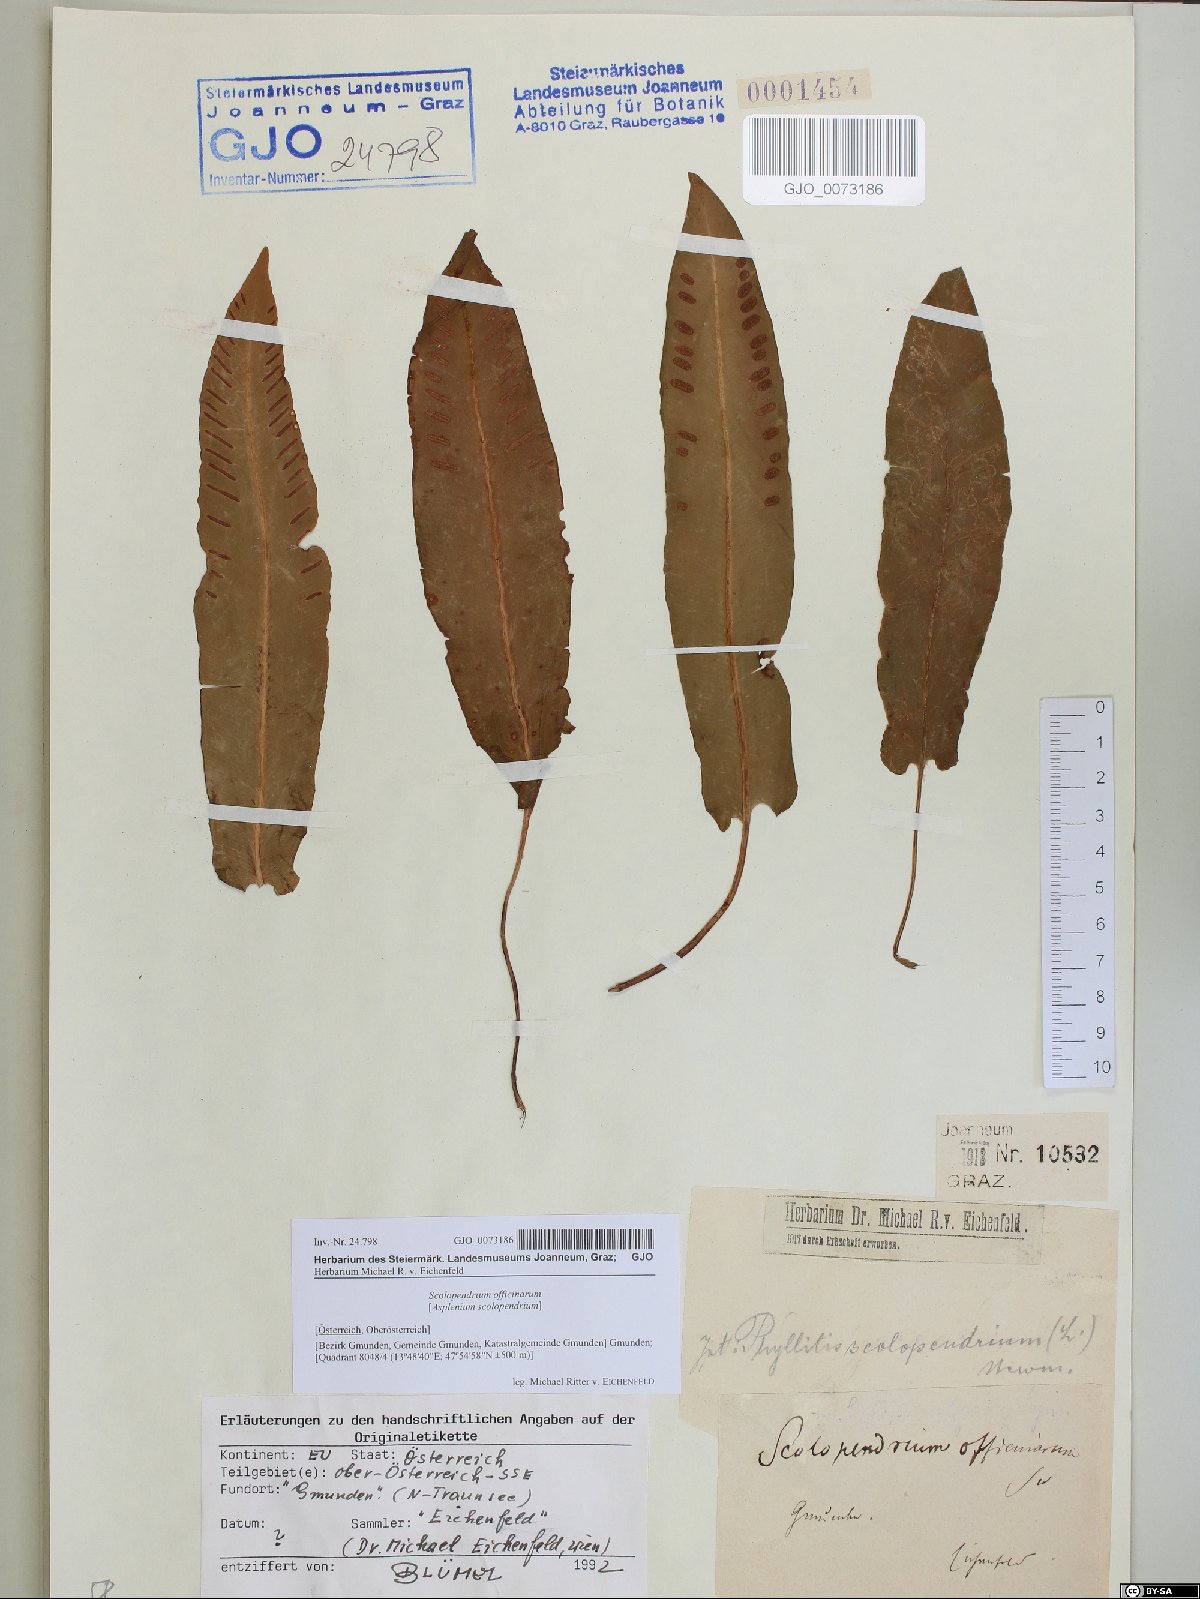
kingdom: Plantae
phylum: Tracheophyta
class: Polypodiopsida
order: Polypodiales
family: Aspleniaceae
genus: Asplenium
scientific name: Asplenium scolopendrium
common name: Hart's-tongue fern
